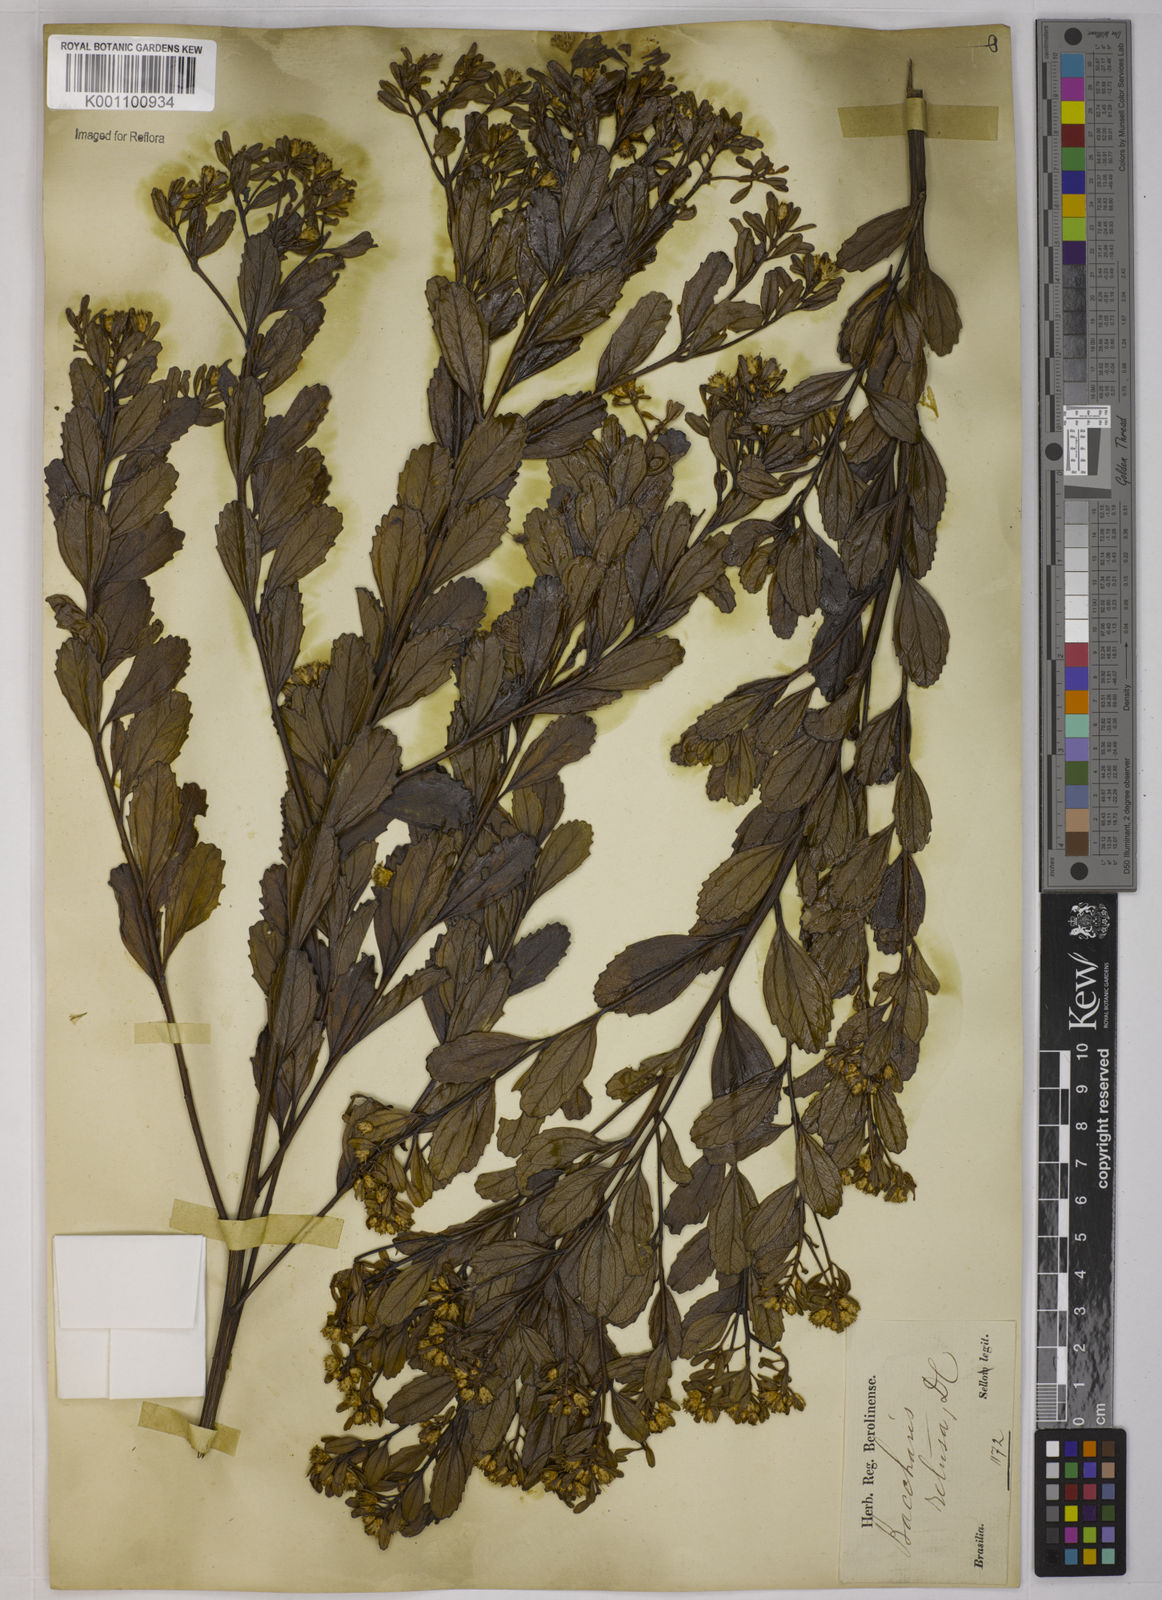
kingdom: Plantae
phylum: Tracheophyta
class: Magnoliopsida
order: Asterales
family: Asteraceae
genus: Baccharis
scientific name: Baccharis retusa
